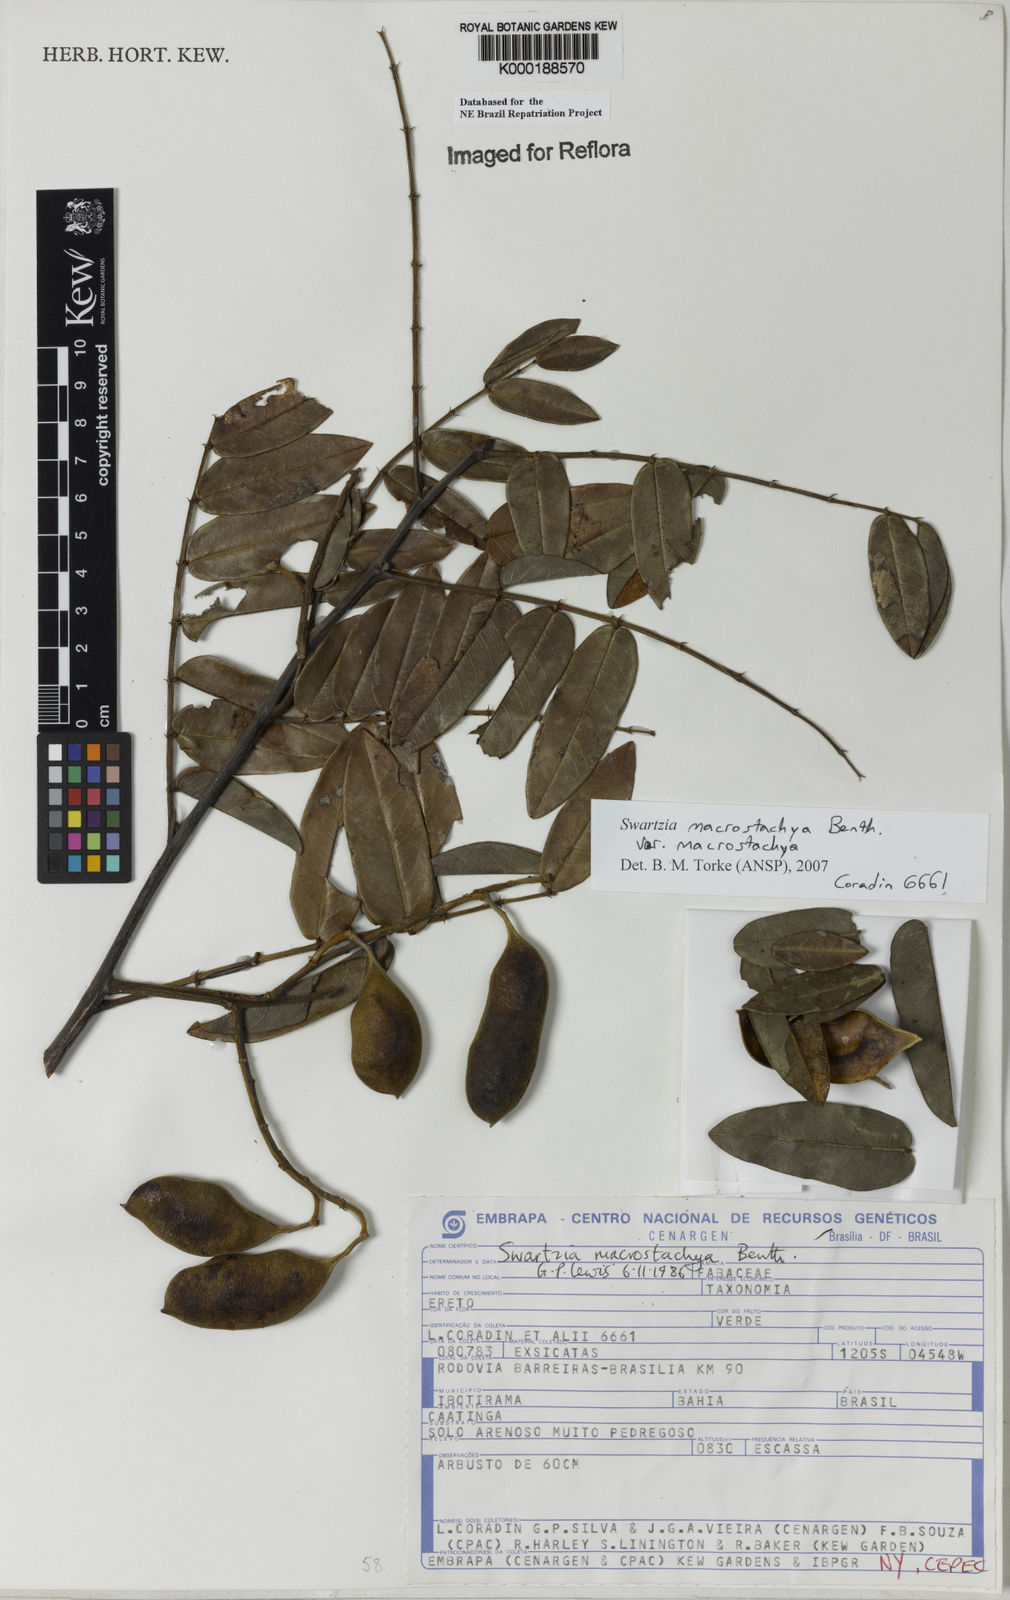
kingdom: Plantae
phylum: Tracheophyta
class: Magnoliopsida
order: Fabales
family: Fabaceae
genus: Swartzia
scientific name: Swartzia
